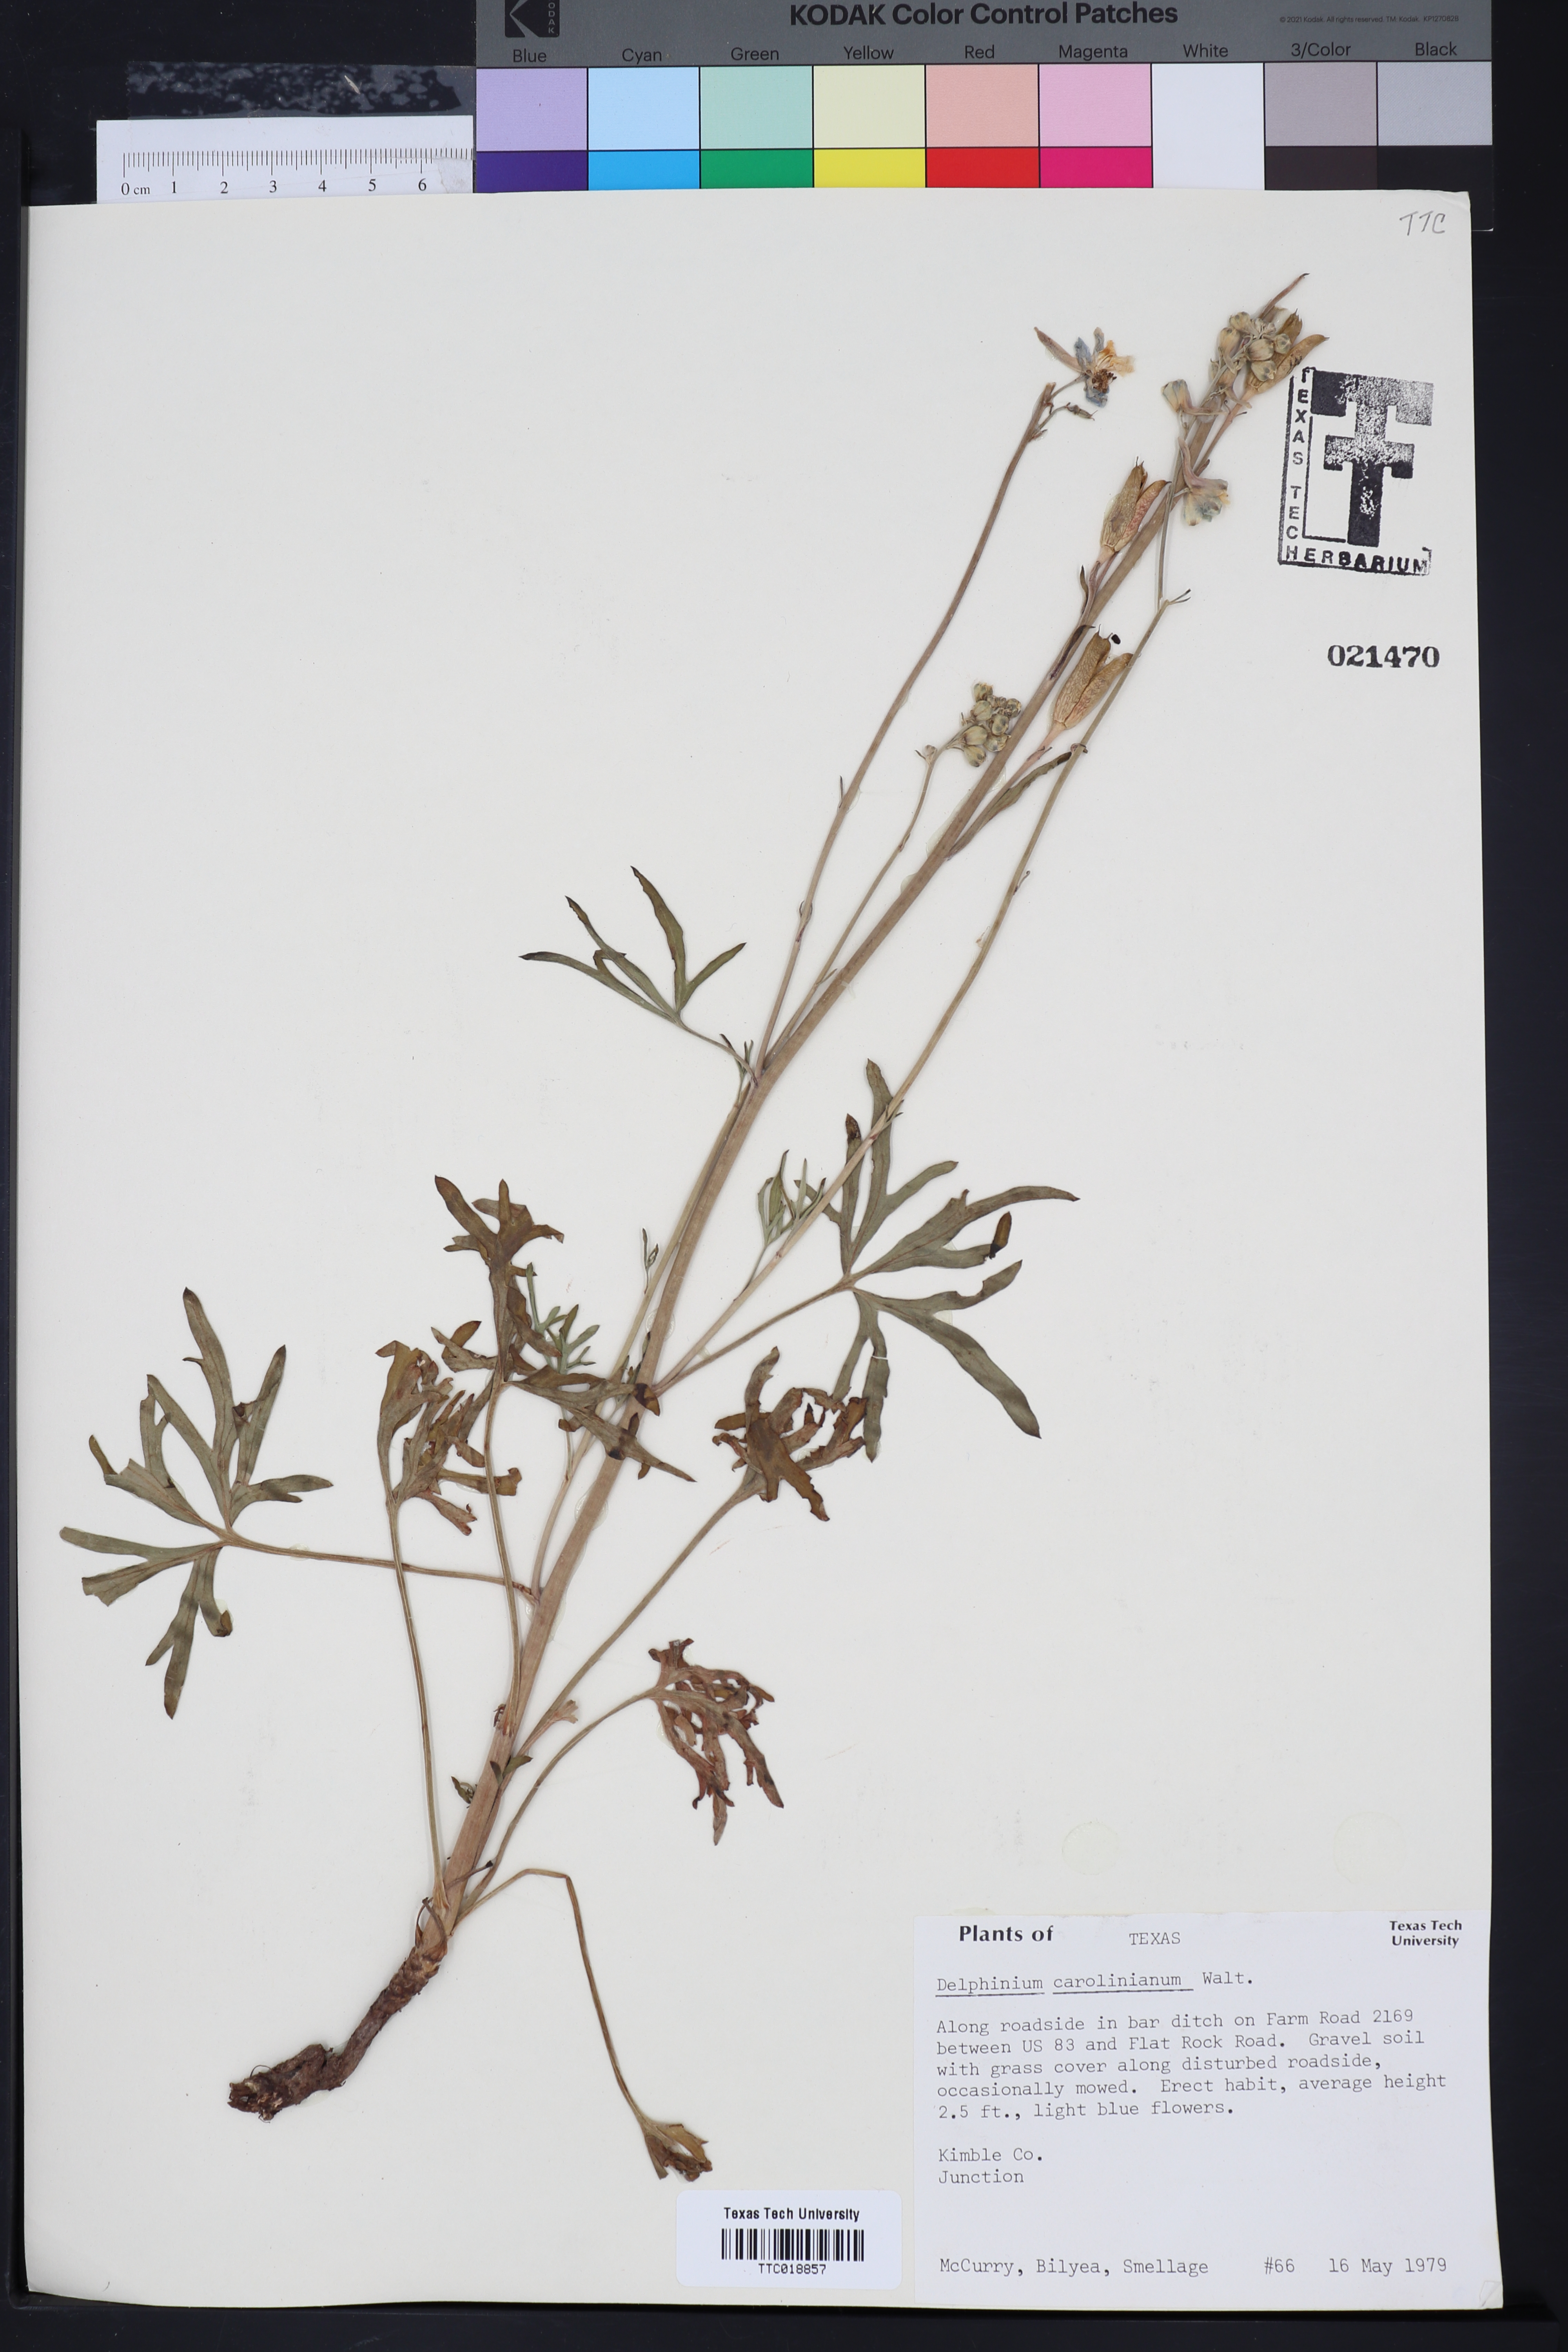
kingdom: Plantae
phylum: Tracheophyta
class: Magnoliopsida
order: Ranunculales
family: Ranunculaceae
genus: Delphinium
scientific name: Delphinium carolinianum
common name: Carolina larkspur
